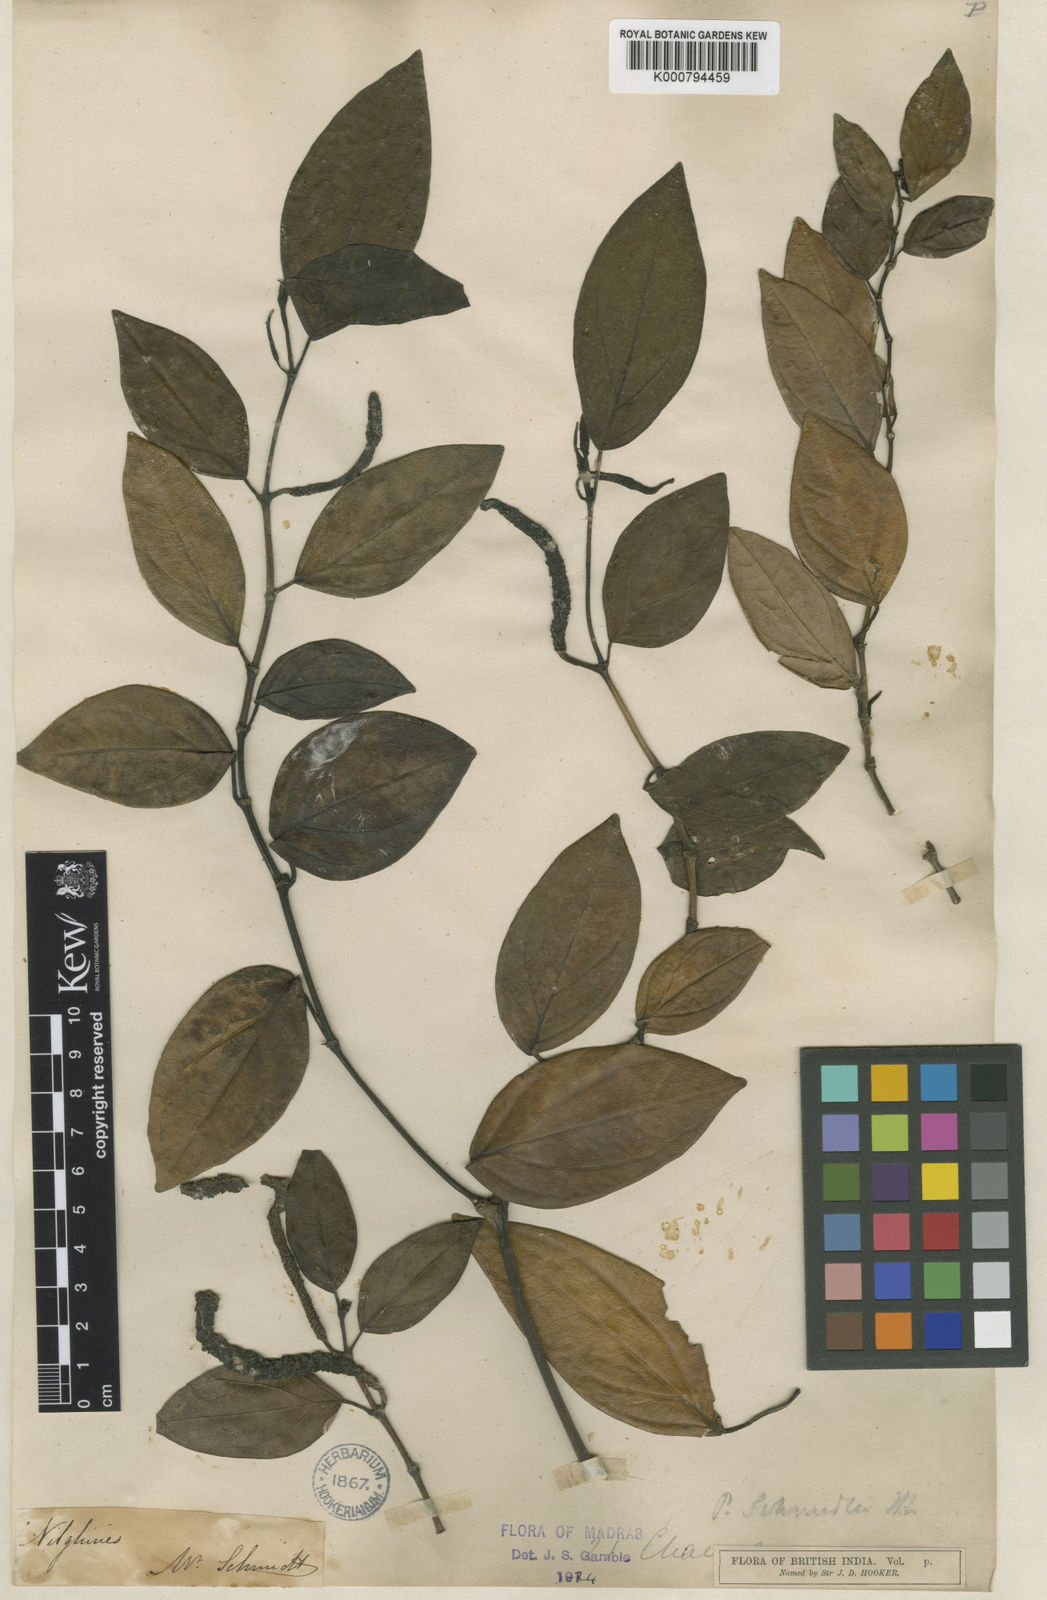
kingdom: Plantae
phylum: Tracheophyta
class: Magnoliopsida
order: Piperales
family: Piperaceae
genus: Piper
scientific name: Piper schmidtii
